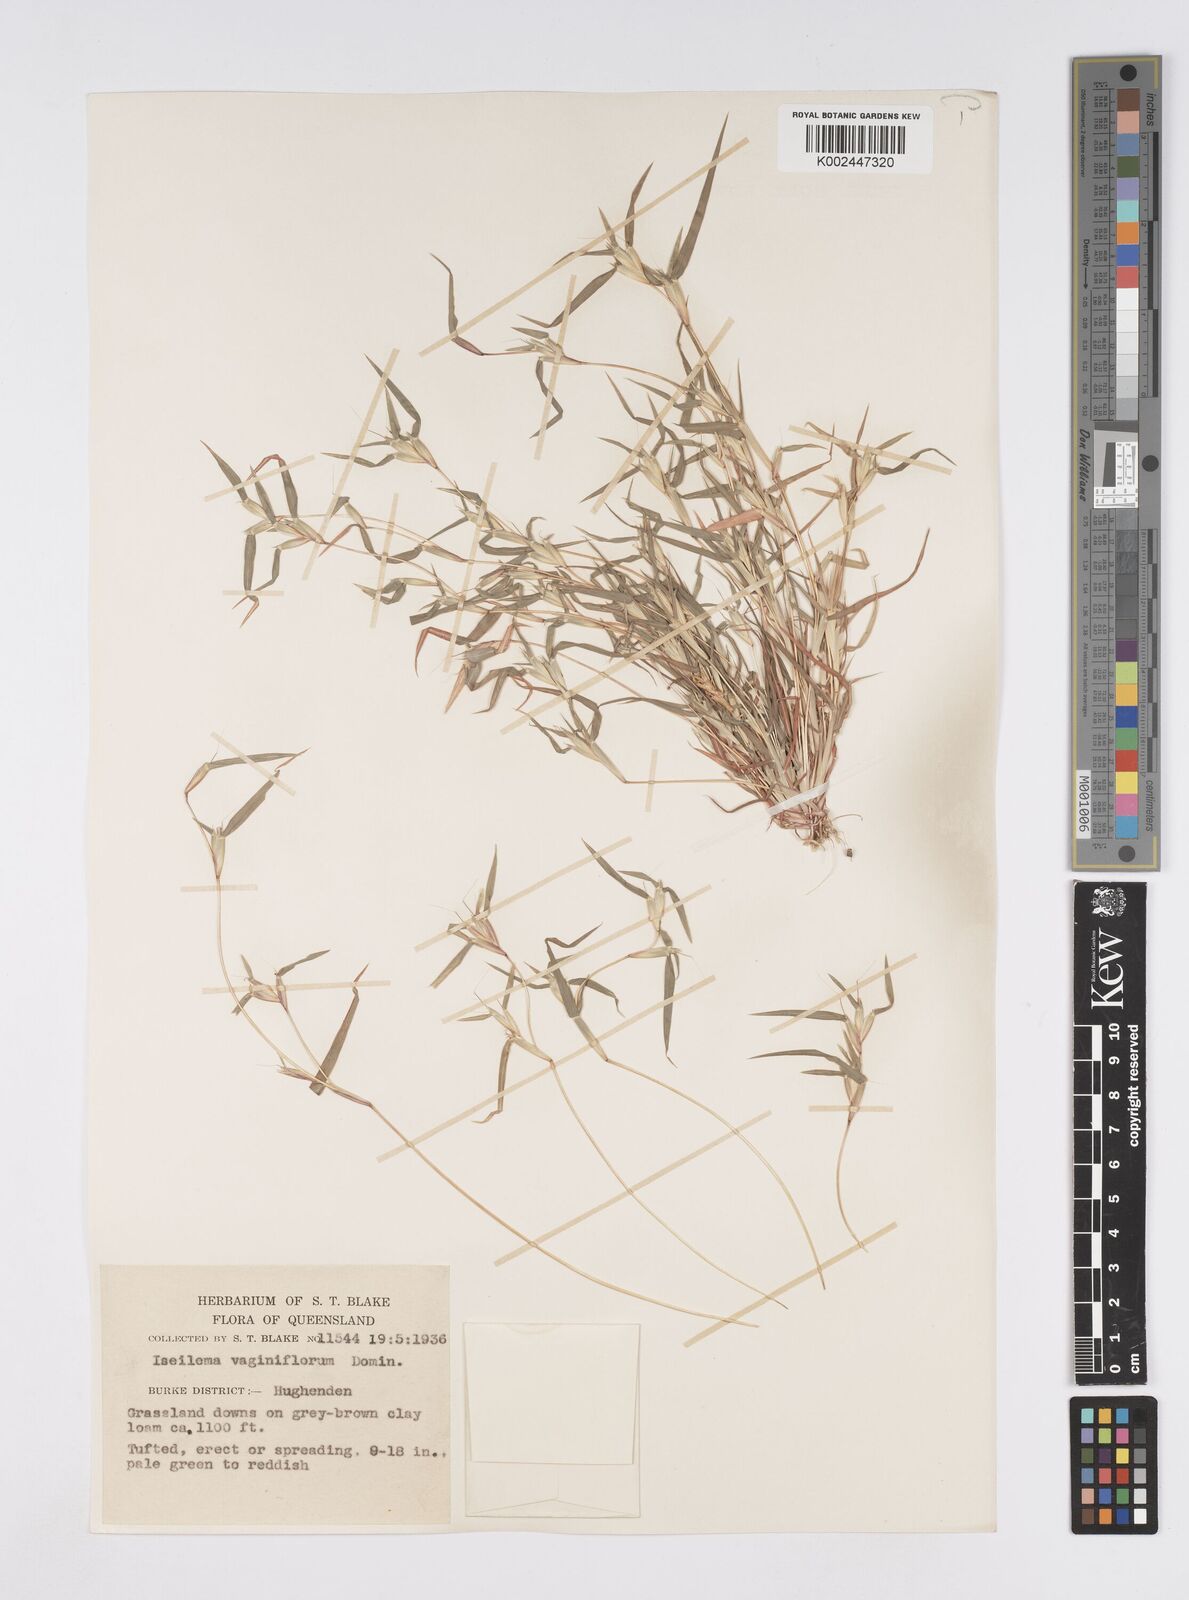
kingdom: Plantae
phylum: Tracheophyta
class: Liliopsida
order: Poales
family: Poaceae
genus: Iseilema
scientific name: Iseilema vaginiflorum
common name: Red flinders grass
